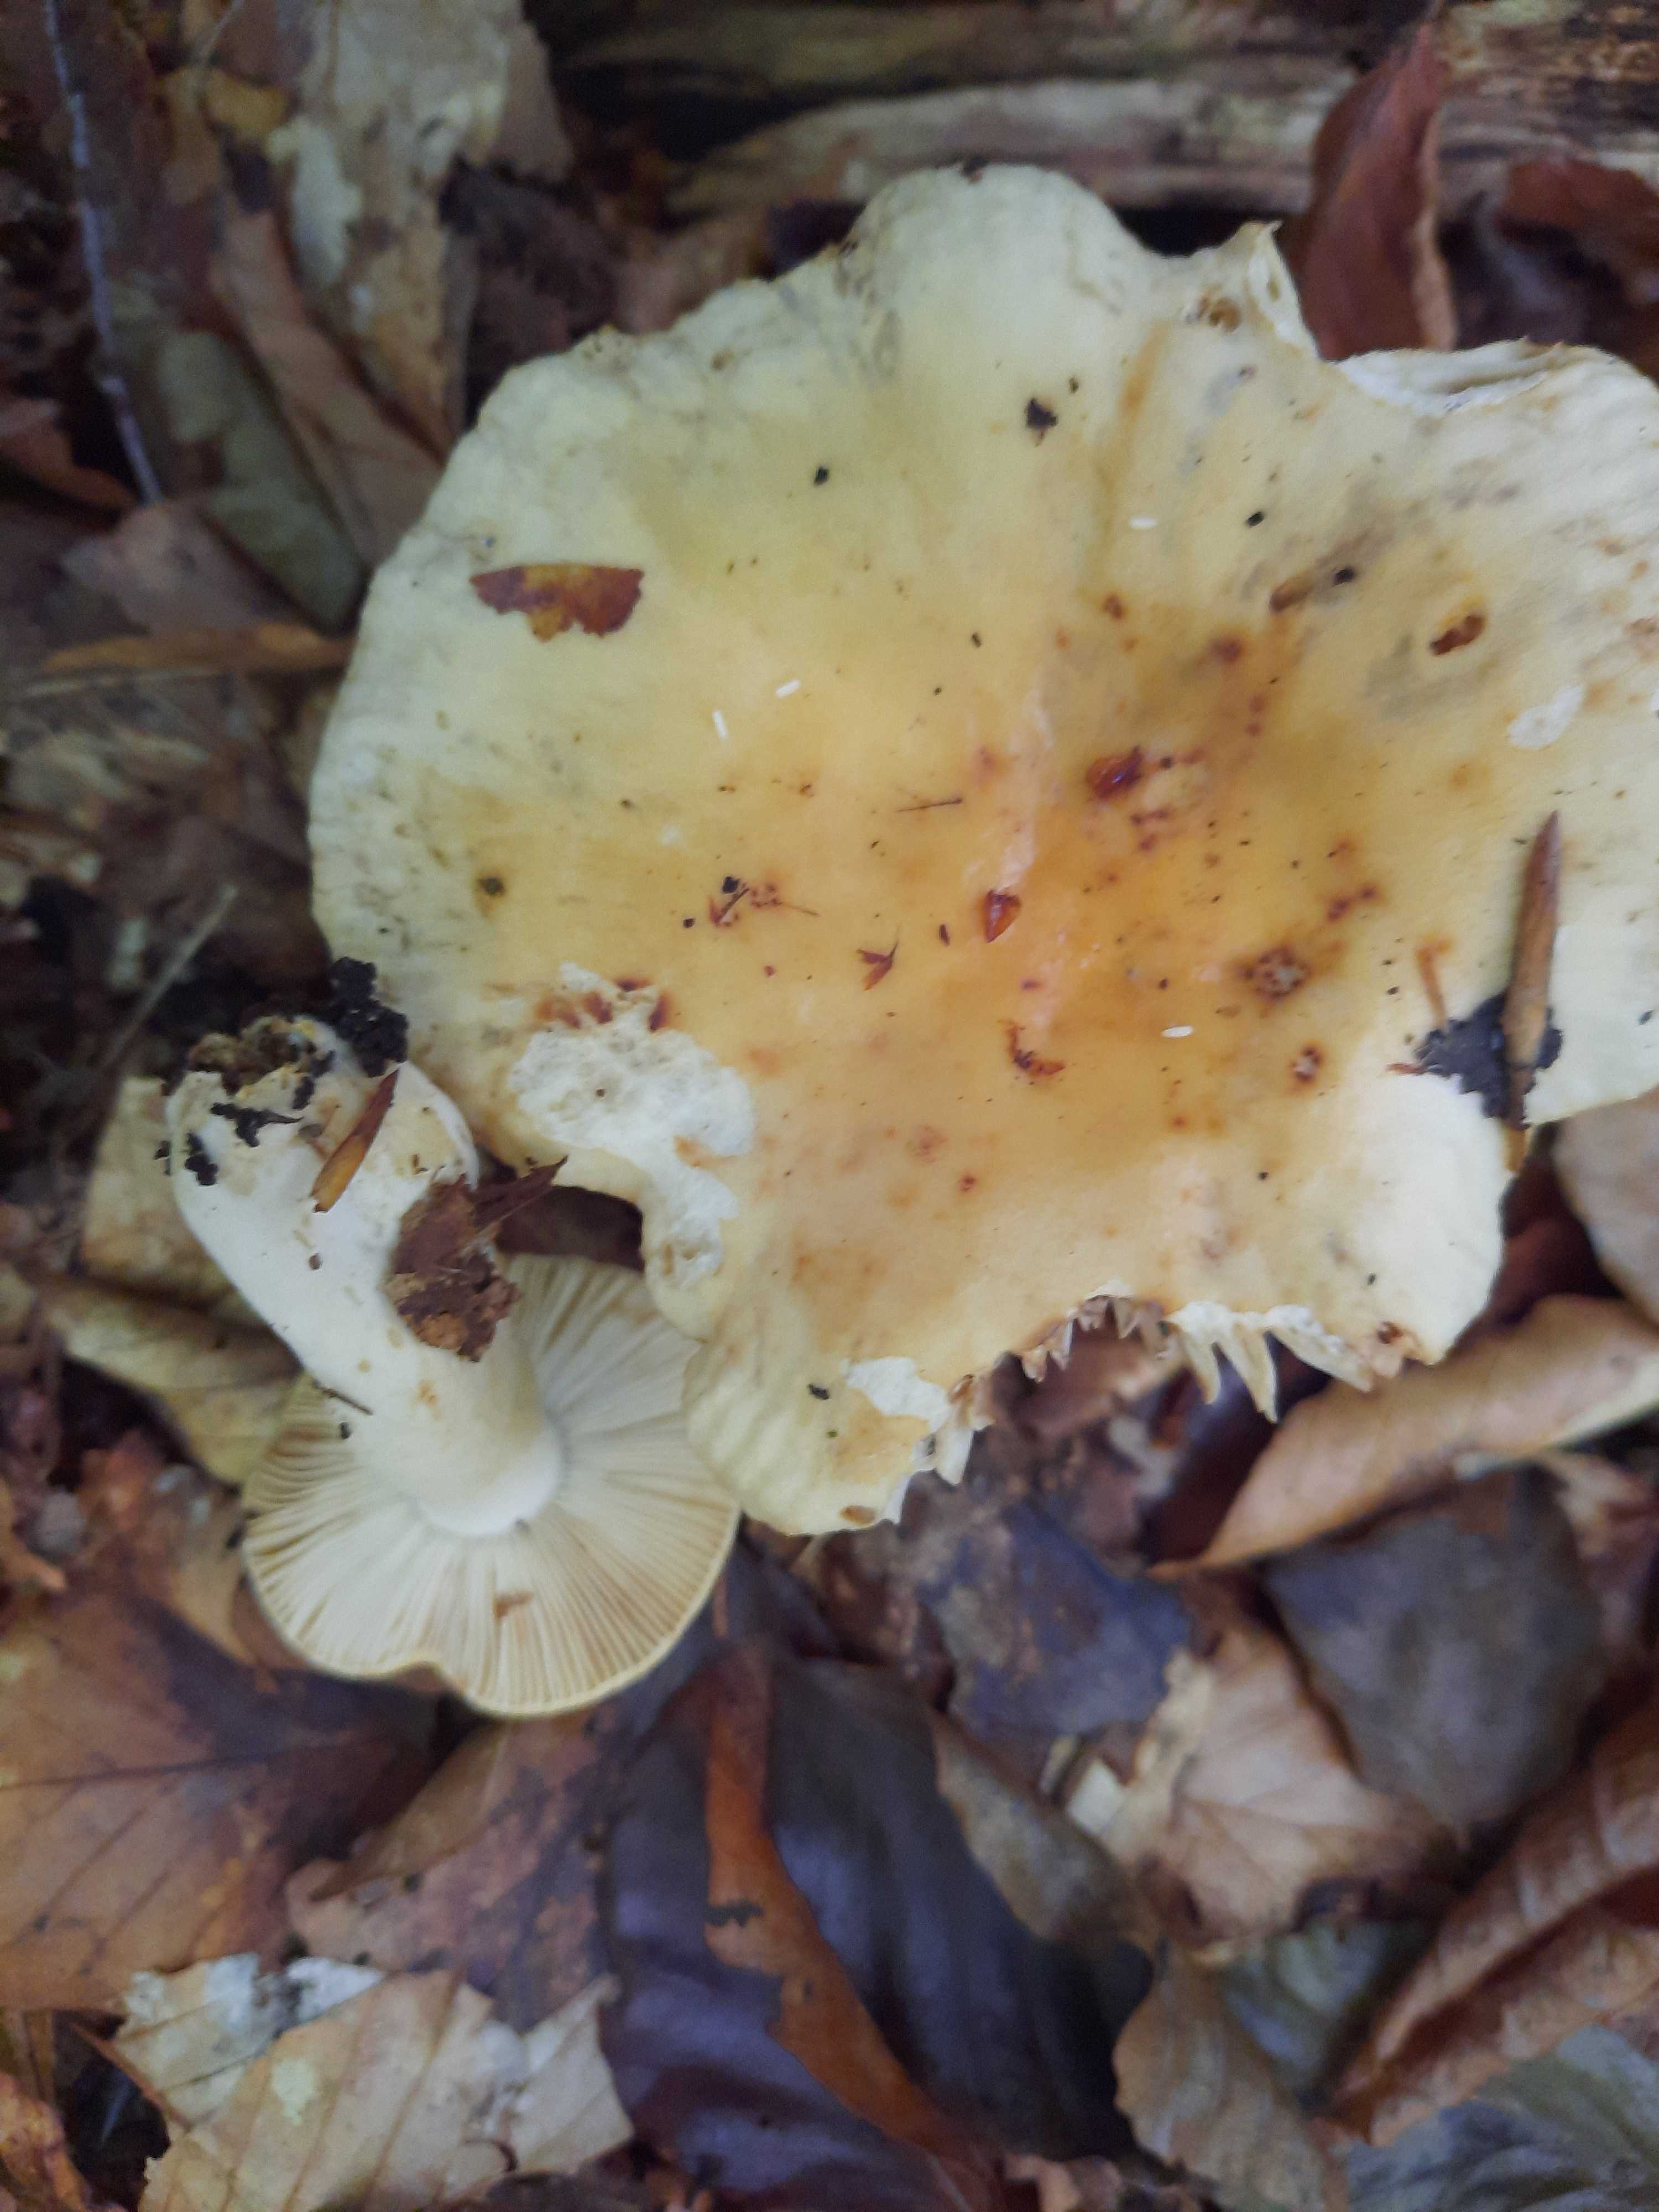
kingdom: Fungi
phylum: Basidiomycota
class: Agaricomycetes
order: Russulales
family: Russulaceae
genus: Russula
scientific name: Russula fellea
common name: galde-skørhat
